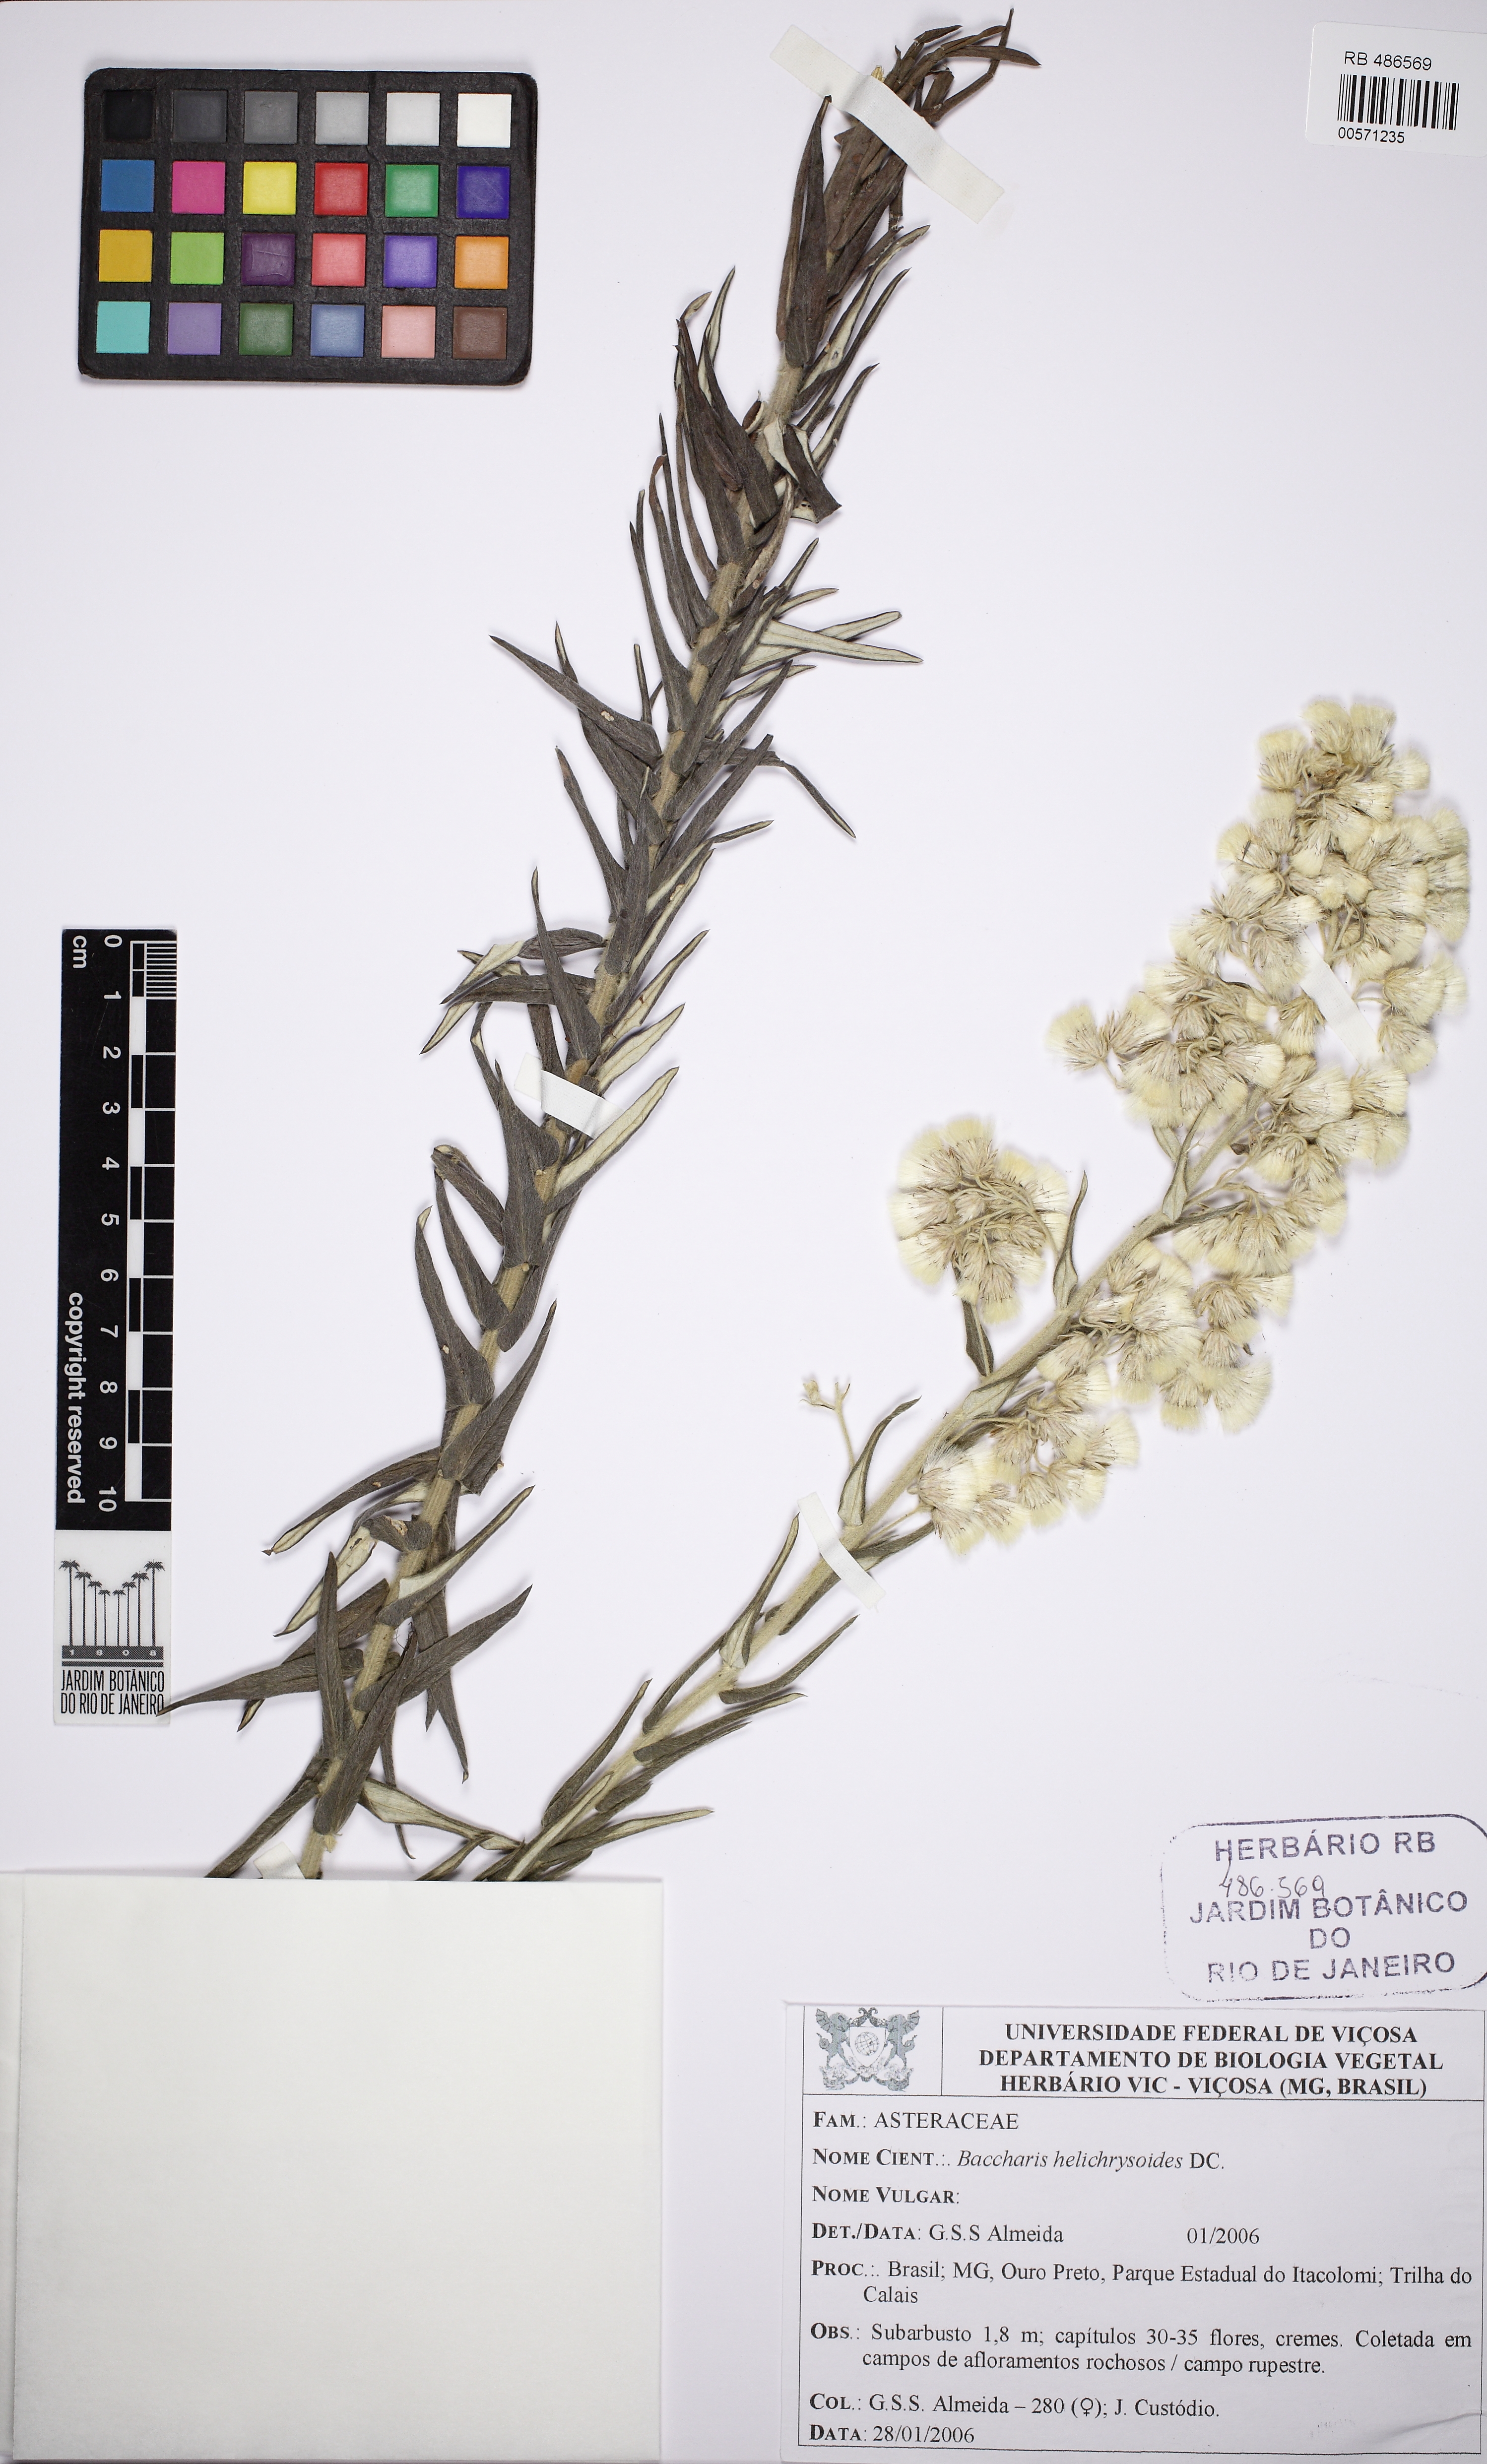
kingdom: Plantae
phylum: Tracheophyta
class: Magnoliopsida
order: Asterales
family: Asteraceae
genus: Baccharis
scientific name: Baccharis helichrysoides
